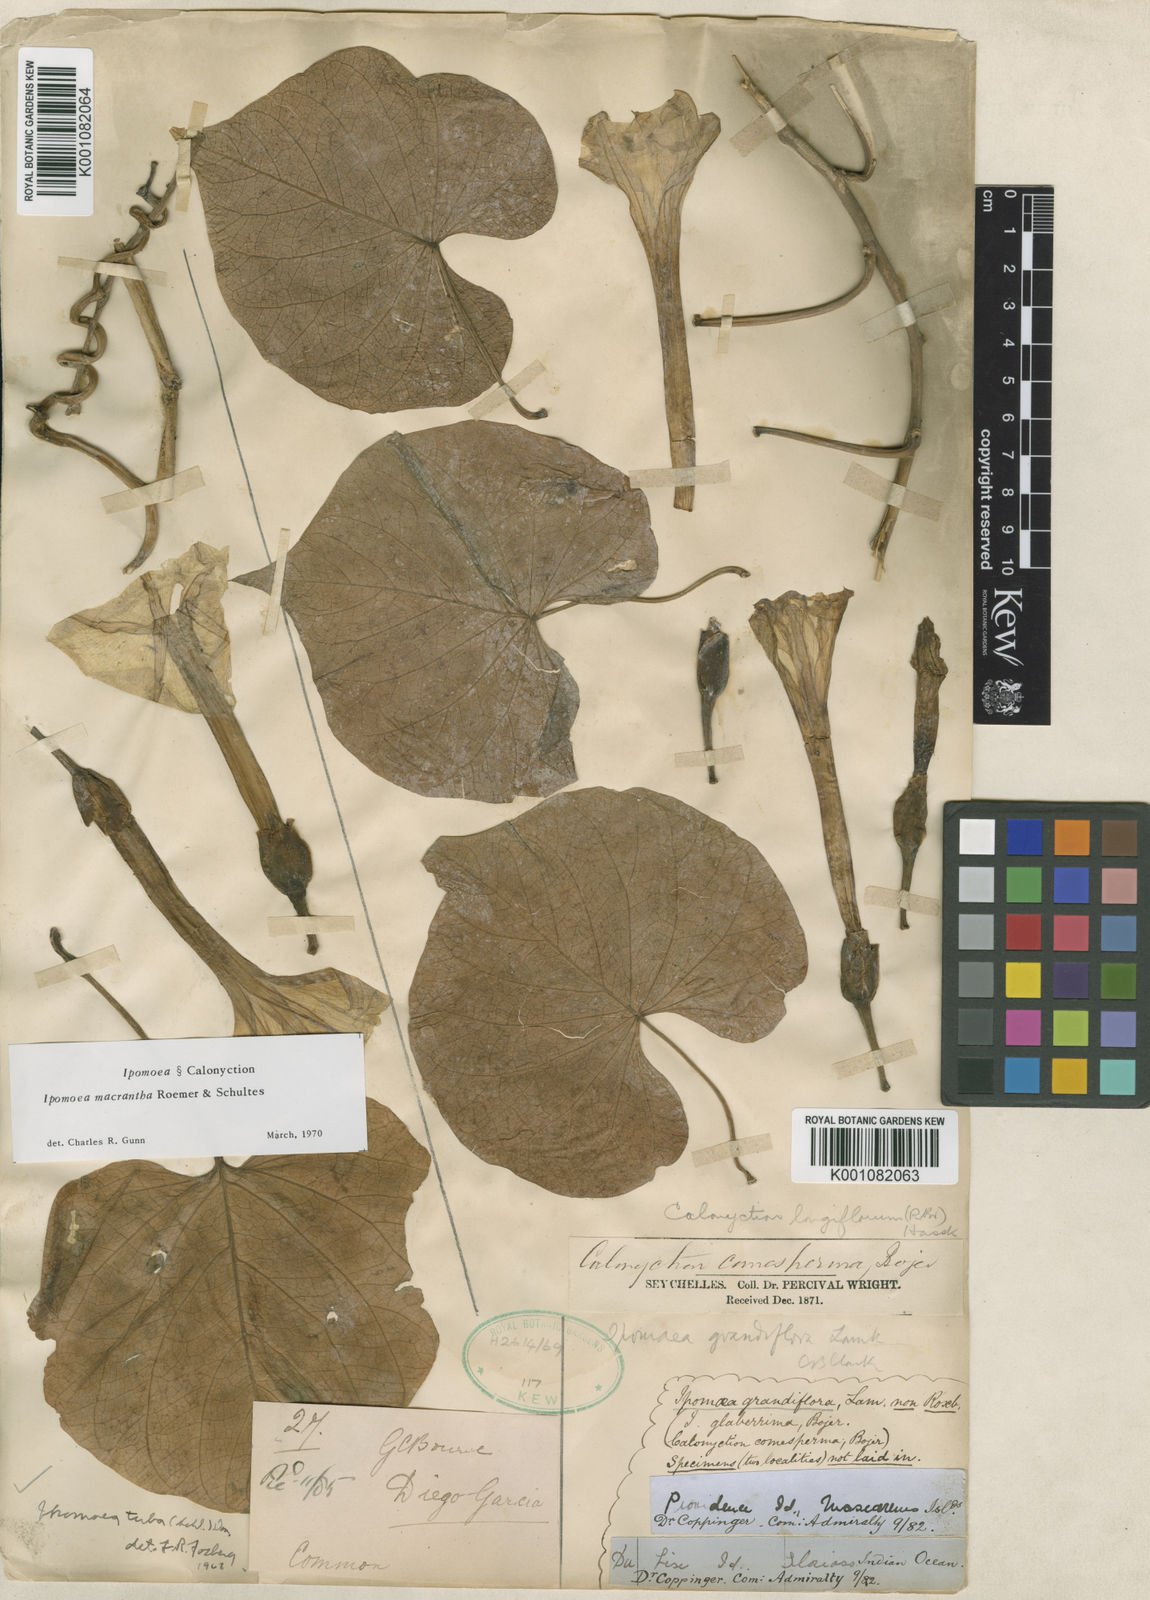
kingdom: Plantae
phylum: Tracheophyta
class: Magnoliopsida
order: Solanales
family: Convolvulaceae
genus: Ipomoea
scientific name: Ipomoea violacea
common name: Beach moonflower
